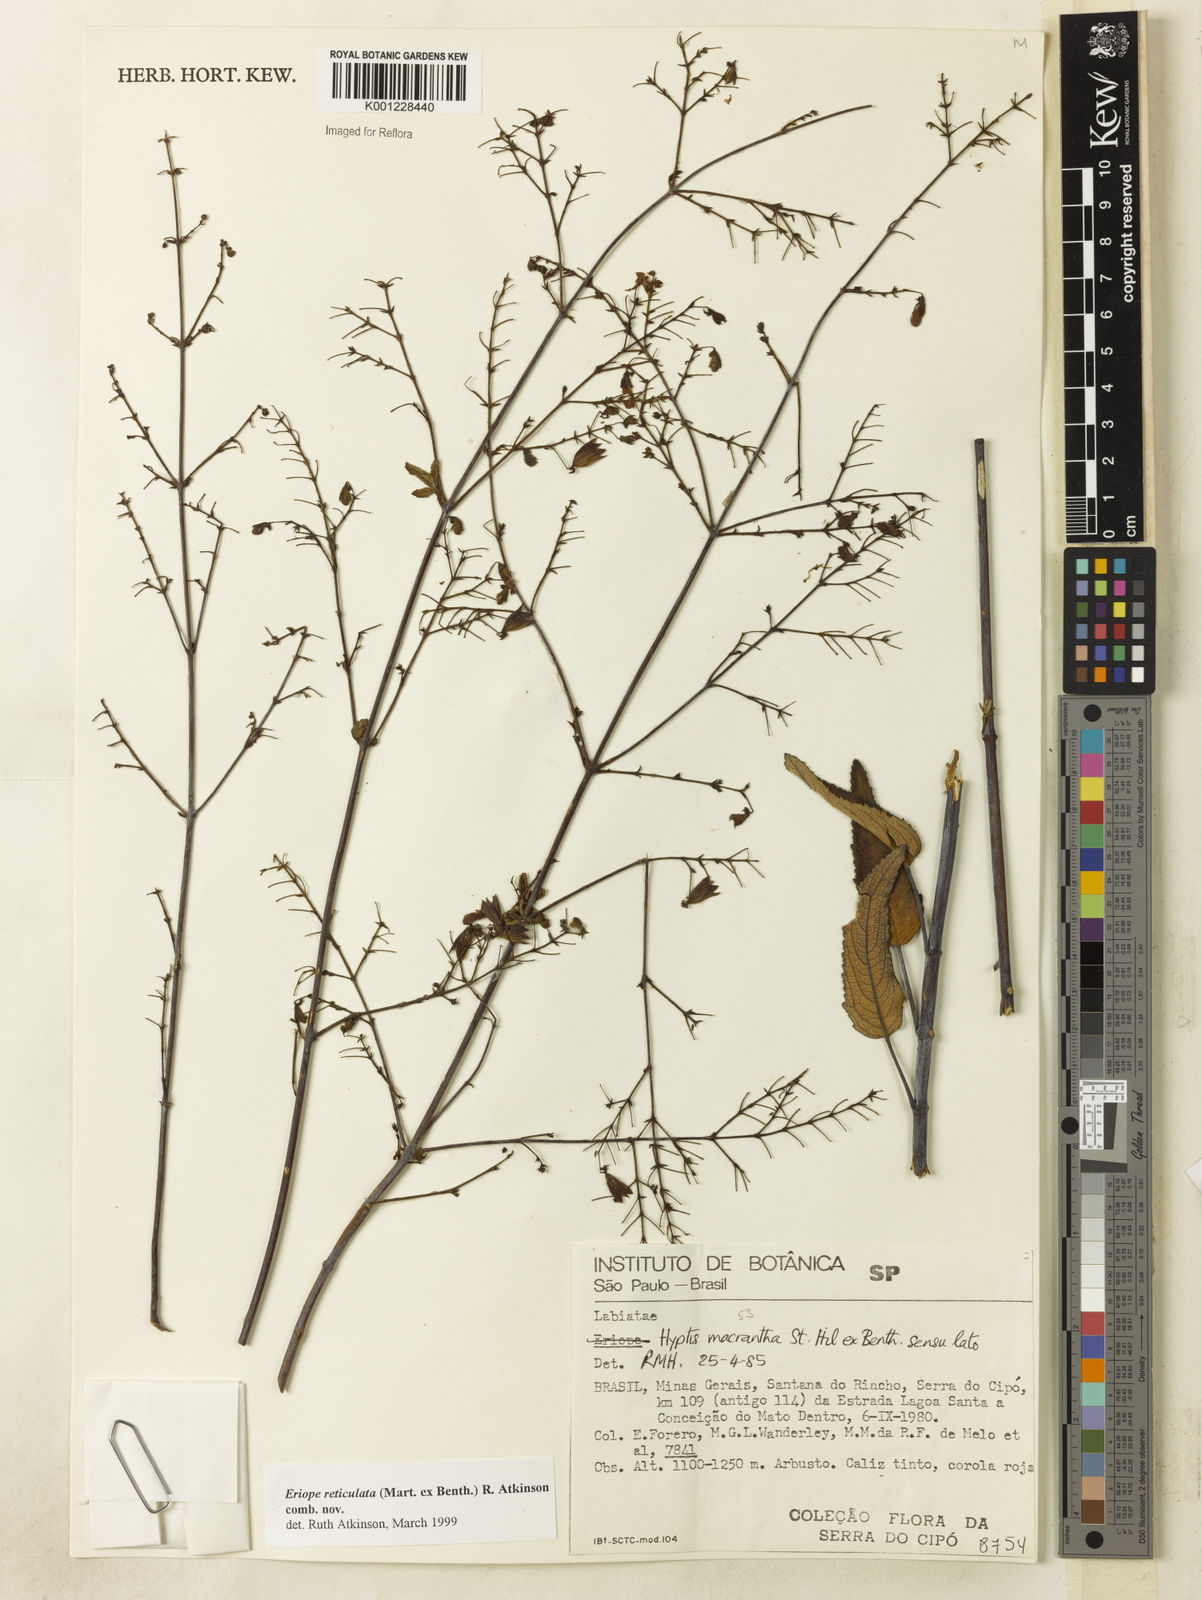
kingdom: Plantae
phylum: Tracheophyta
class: Magnoliopsida
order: Lamiales
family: Lamiaceae
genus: Hypenia
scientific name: Hypenia reticulata
